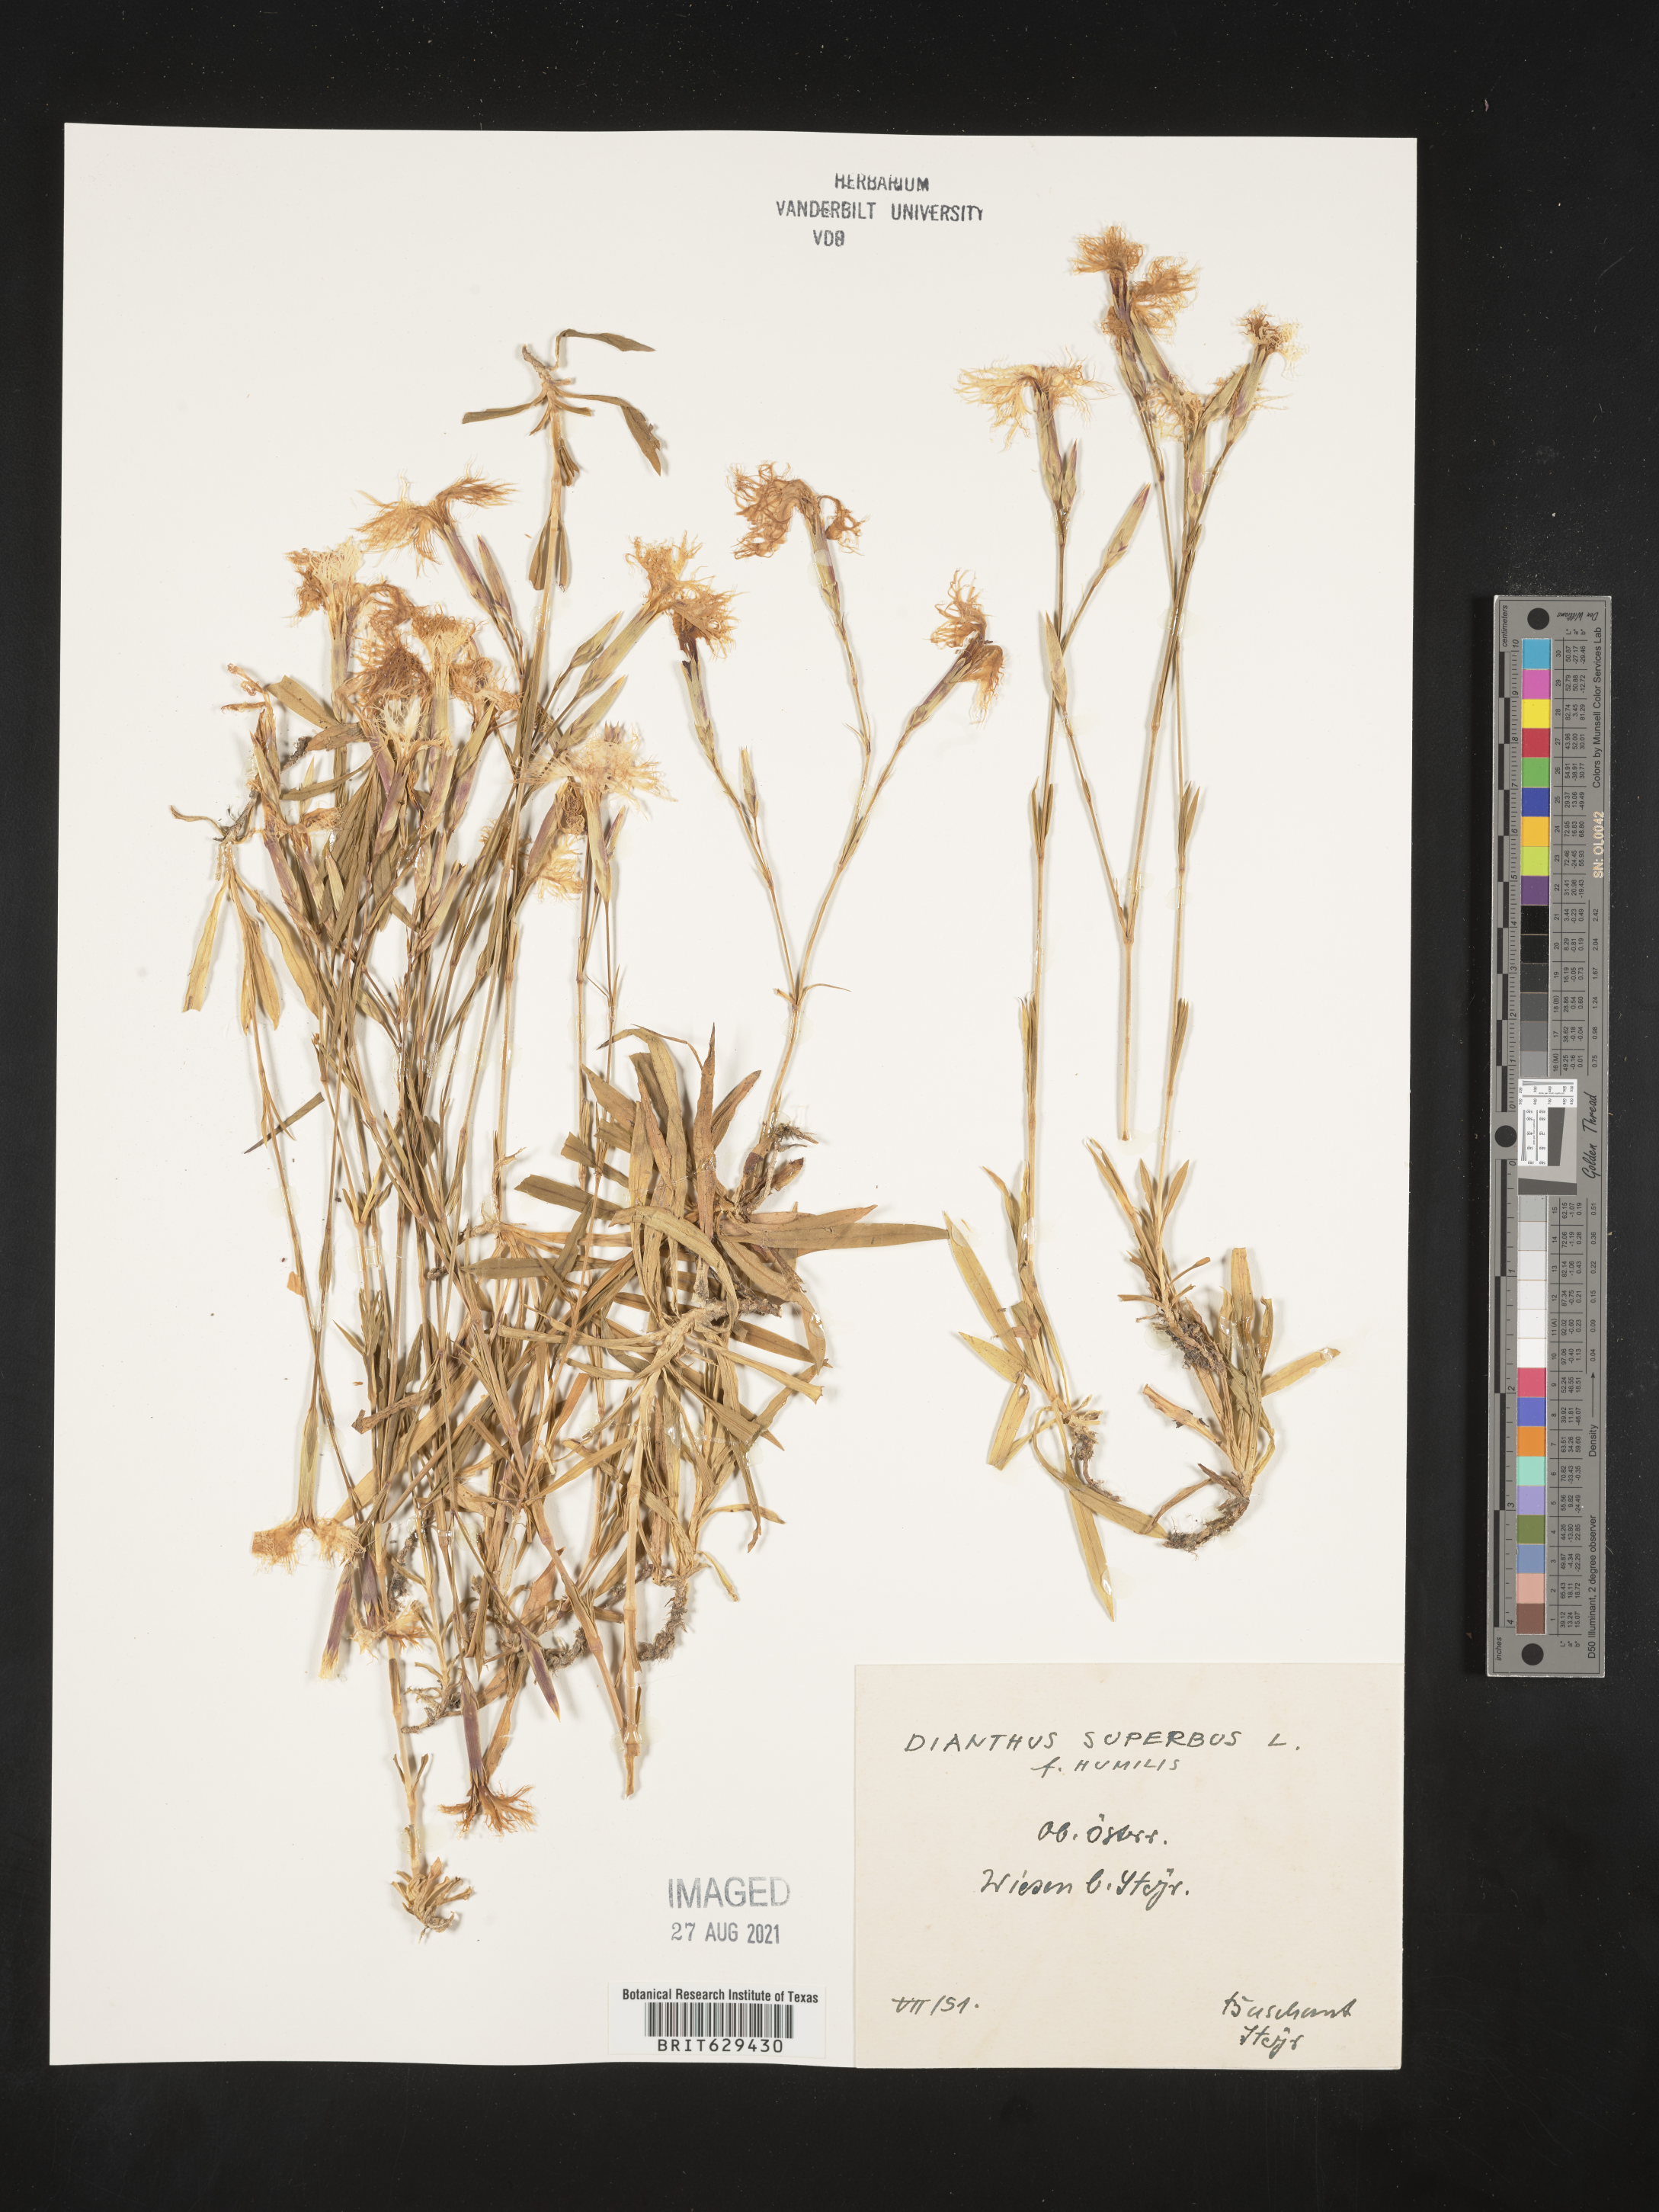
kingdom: Plantae
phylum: Tracheophyta
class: Magnoliopsida
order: Caryophyllales
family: Caryophyllaceae
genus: Dianthus
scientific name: Dianthus
